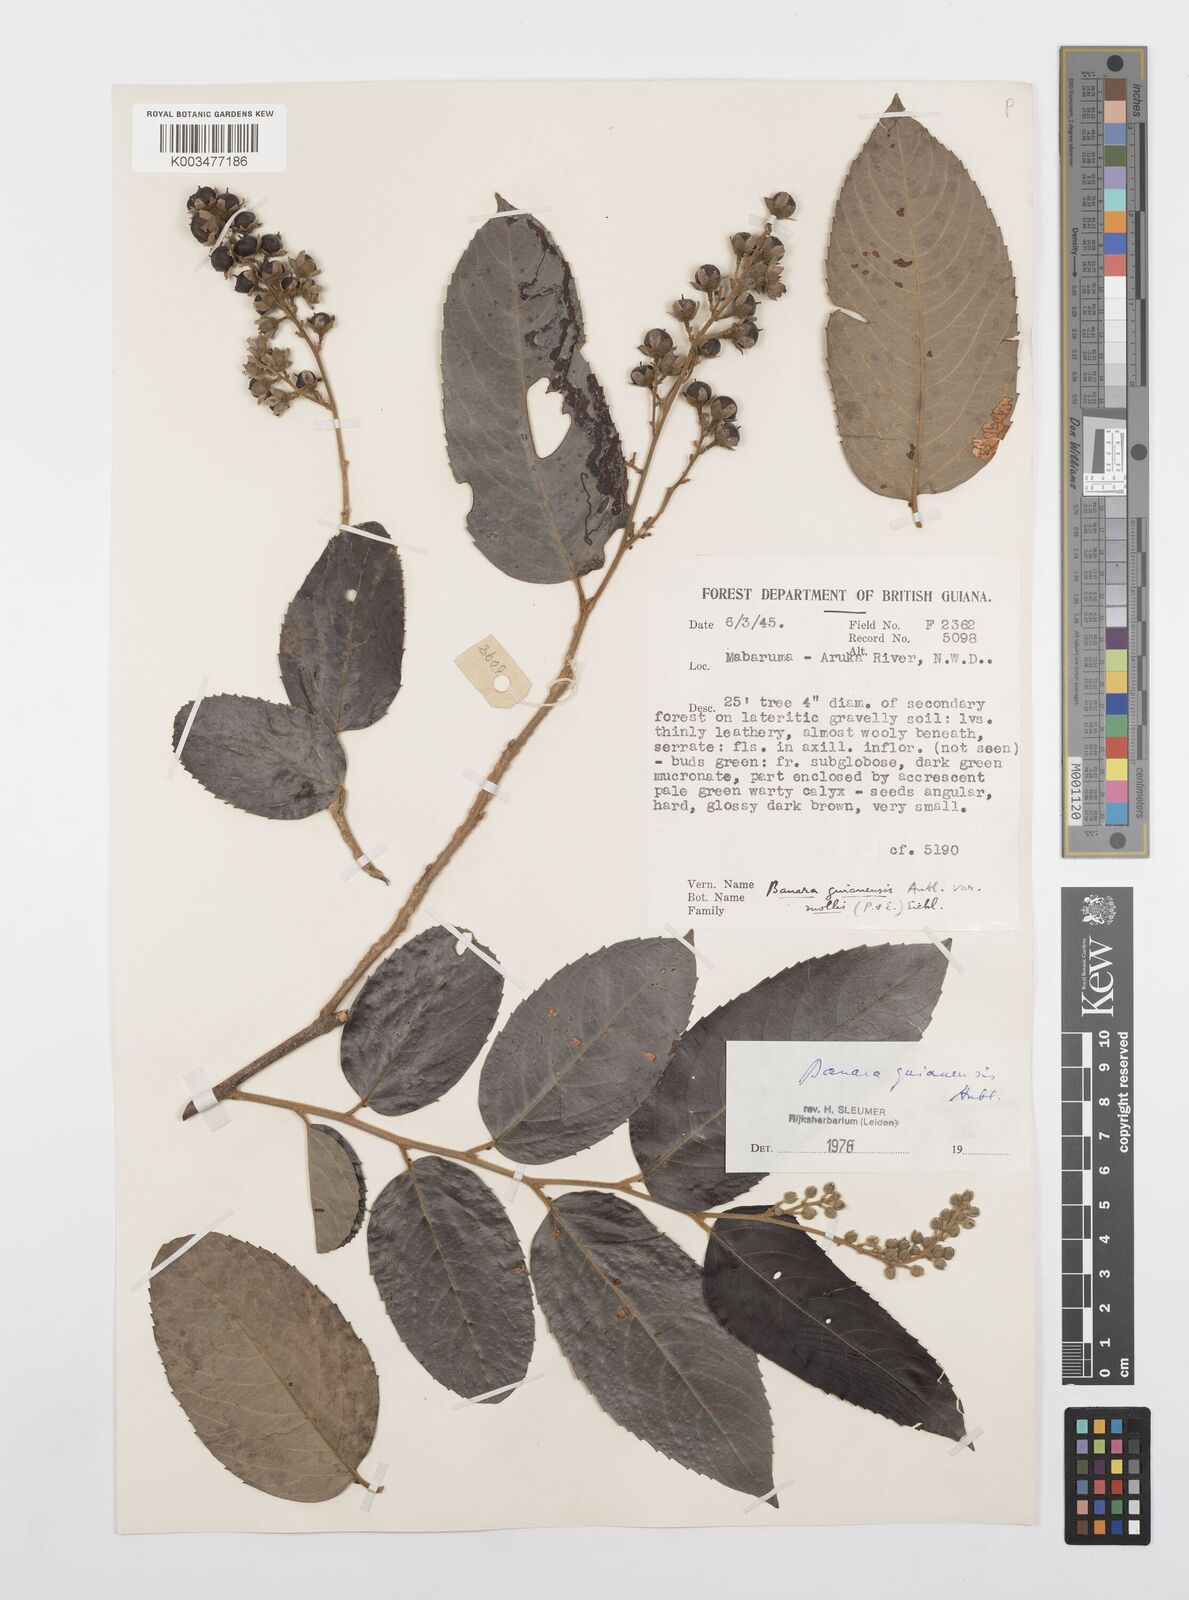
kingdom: Plantae
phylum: Tracheophyta
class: Magnoliopsida
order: Malpighiales
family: Salicaceae
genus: Banara
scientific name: Banara guianensis
